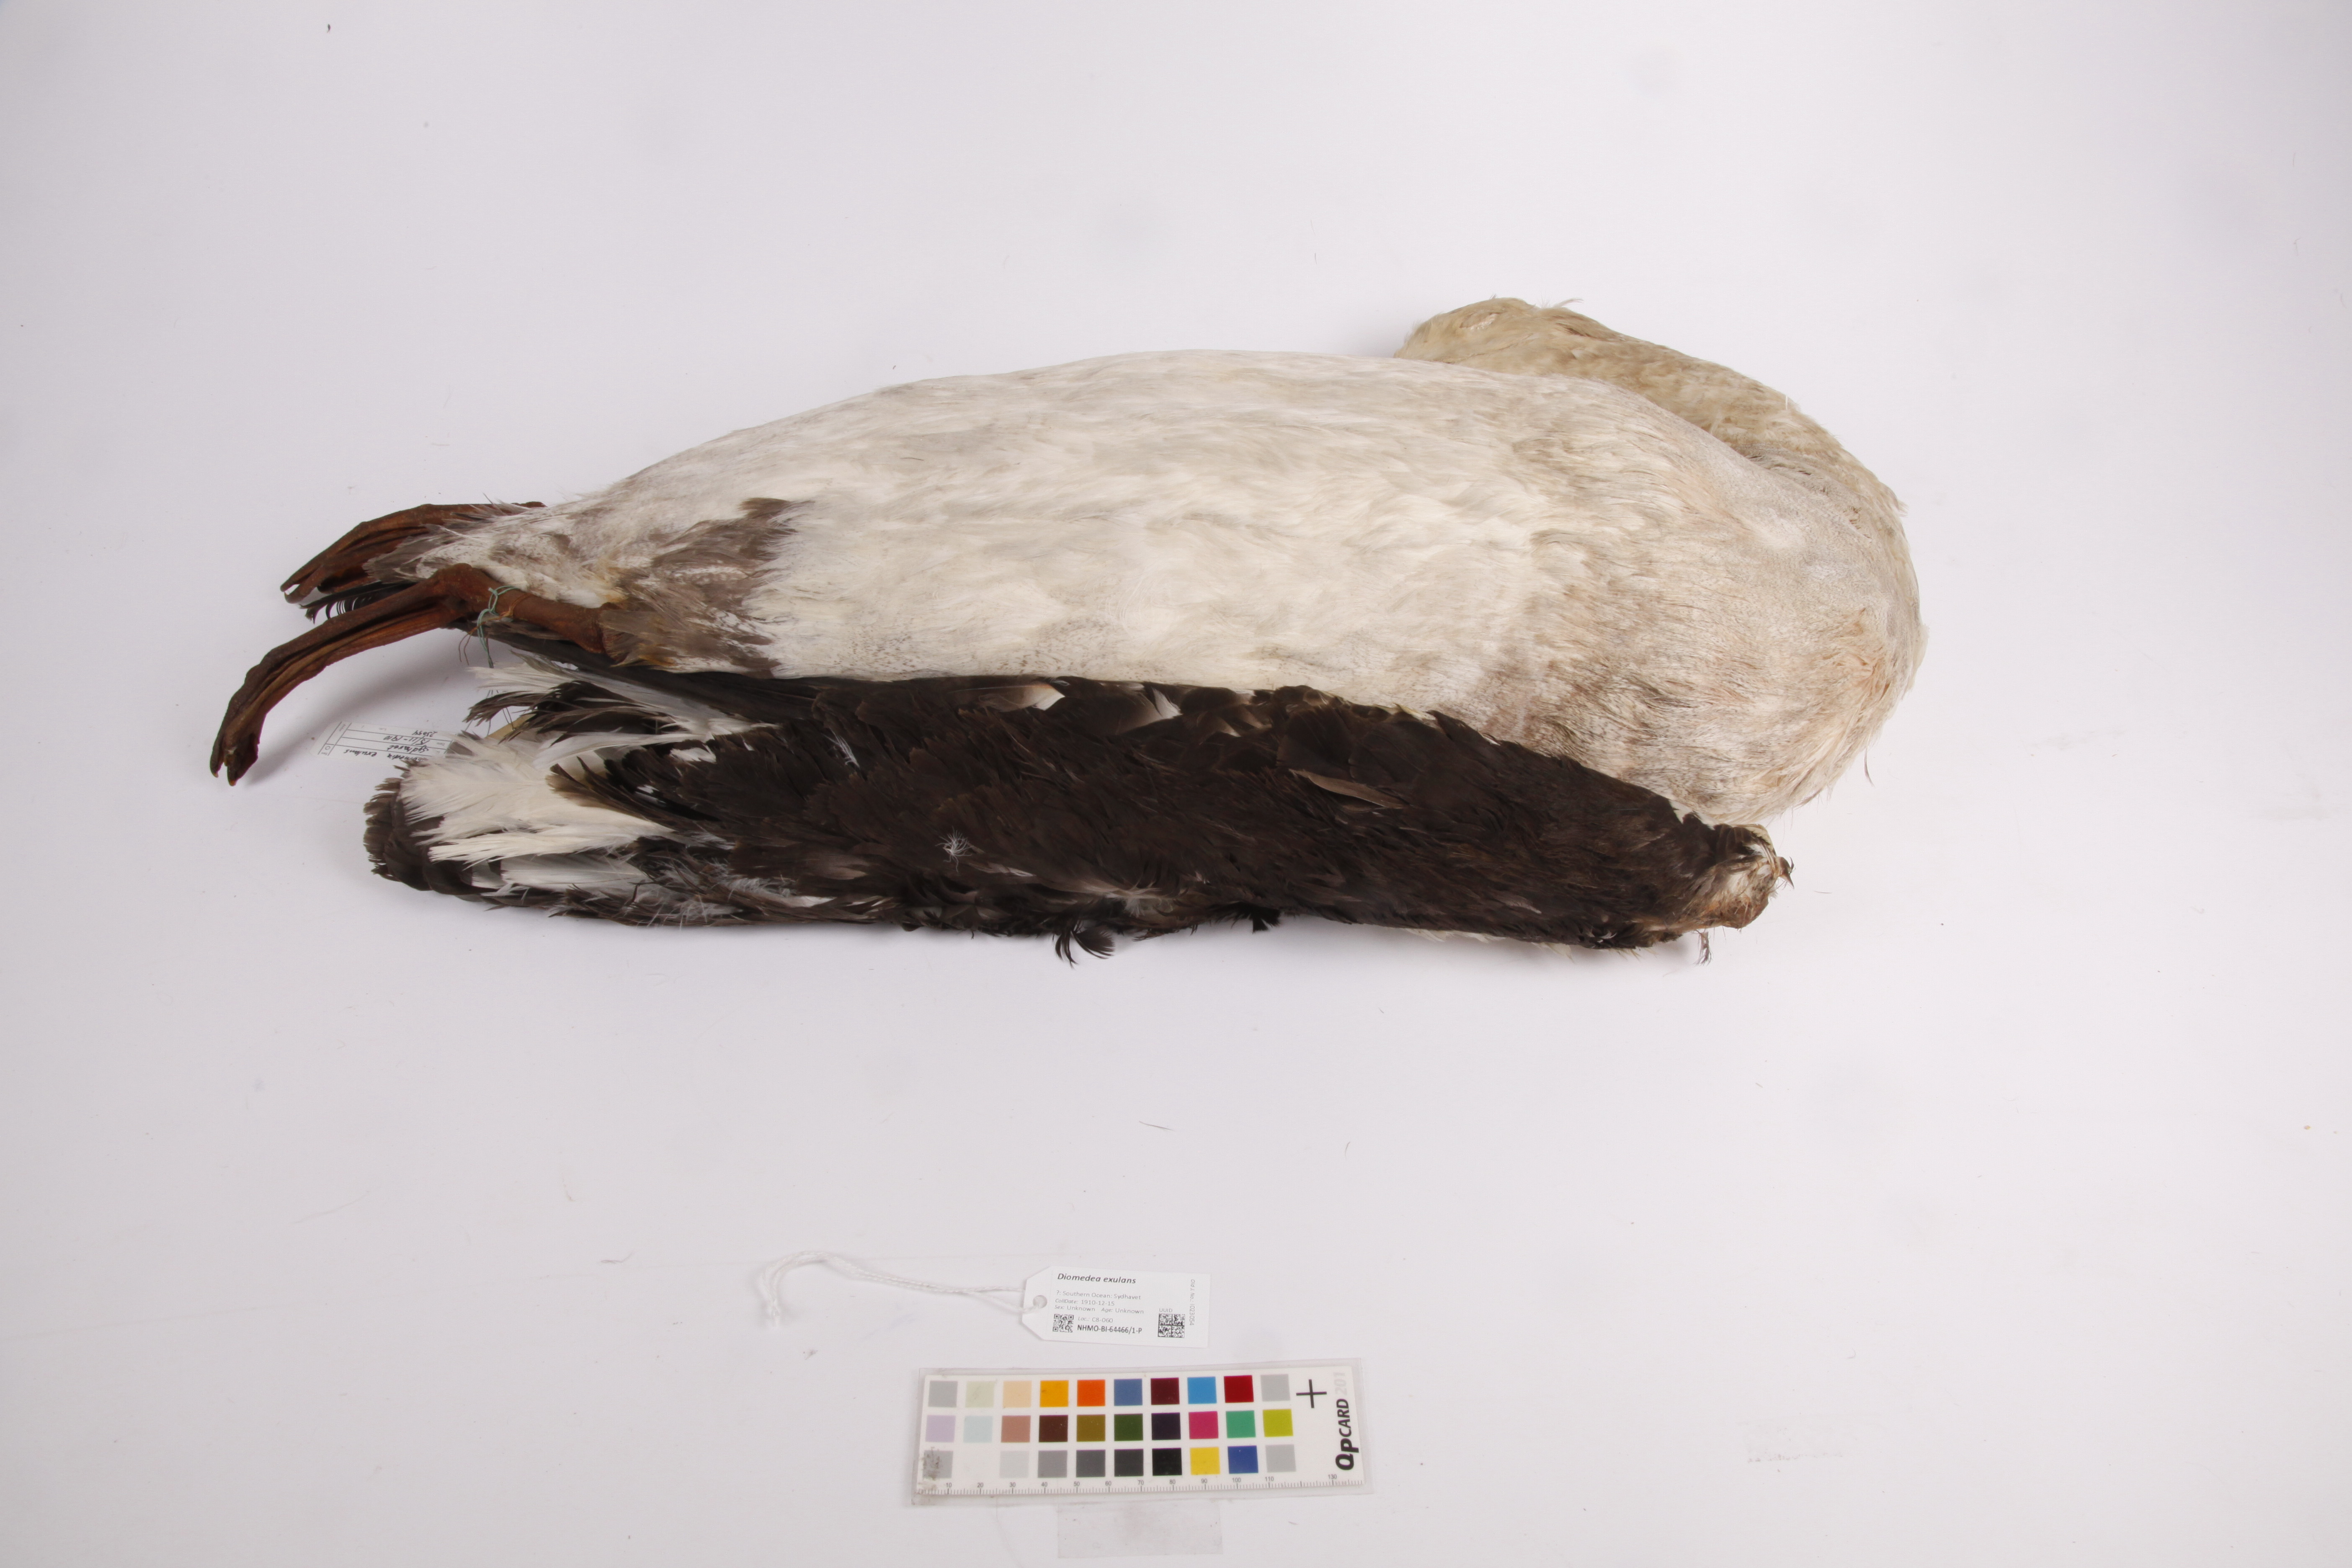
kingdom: Animalia
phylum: Chordata
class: Aves
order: Procellariiformes
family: Diomedeidae
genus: Diomedea
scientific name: Diomedea exulans
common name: Wandering albatross
